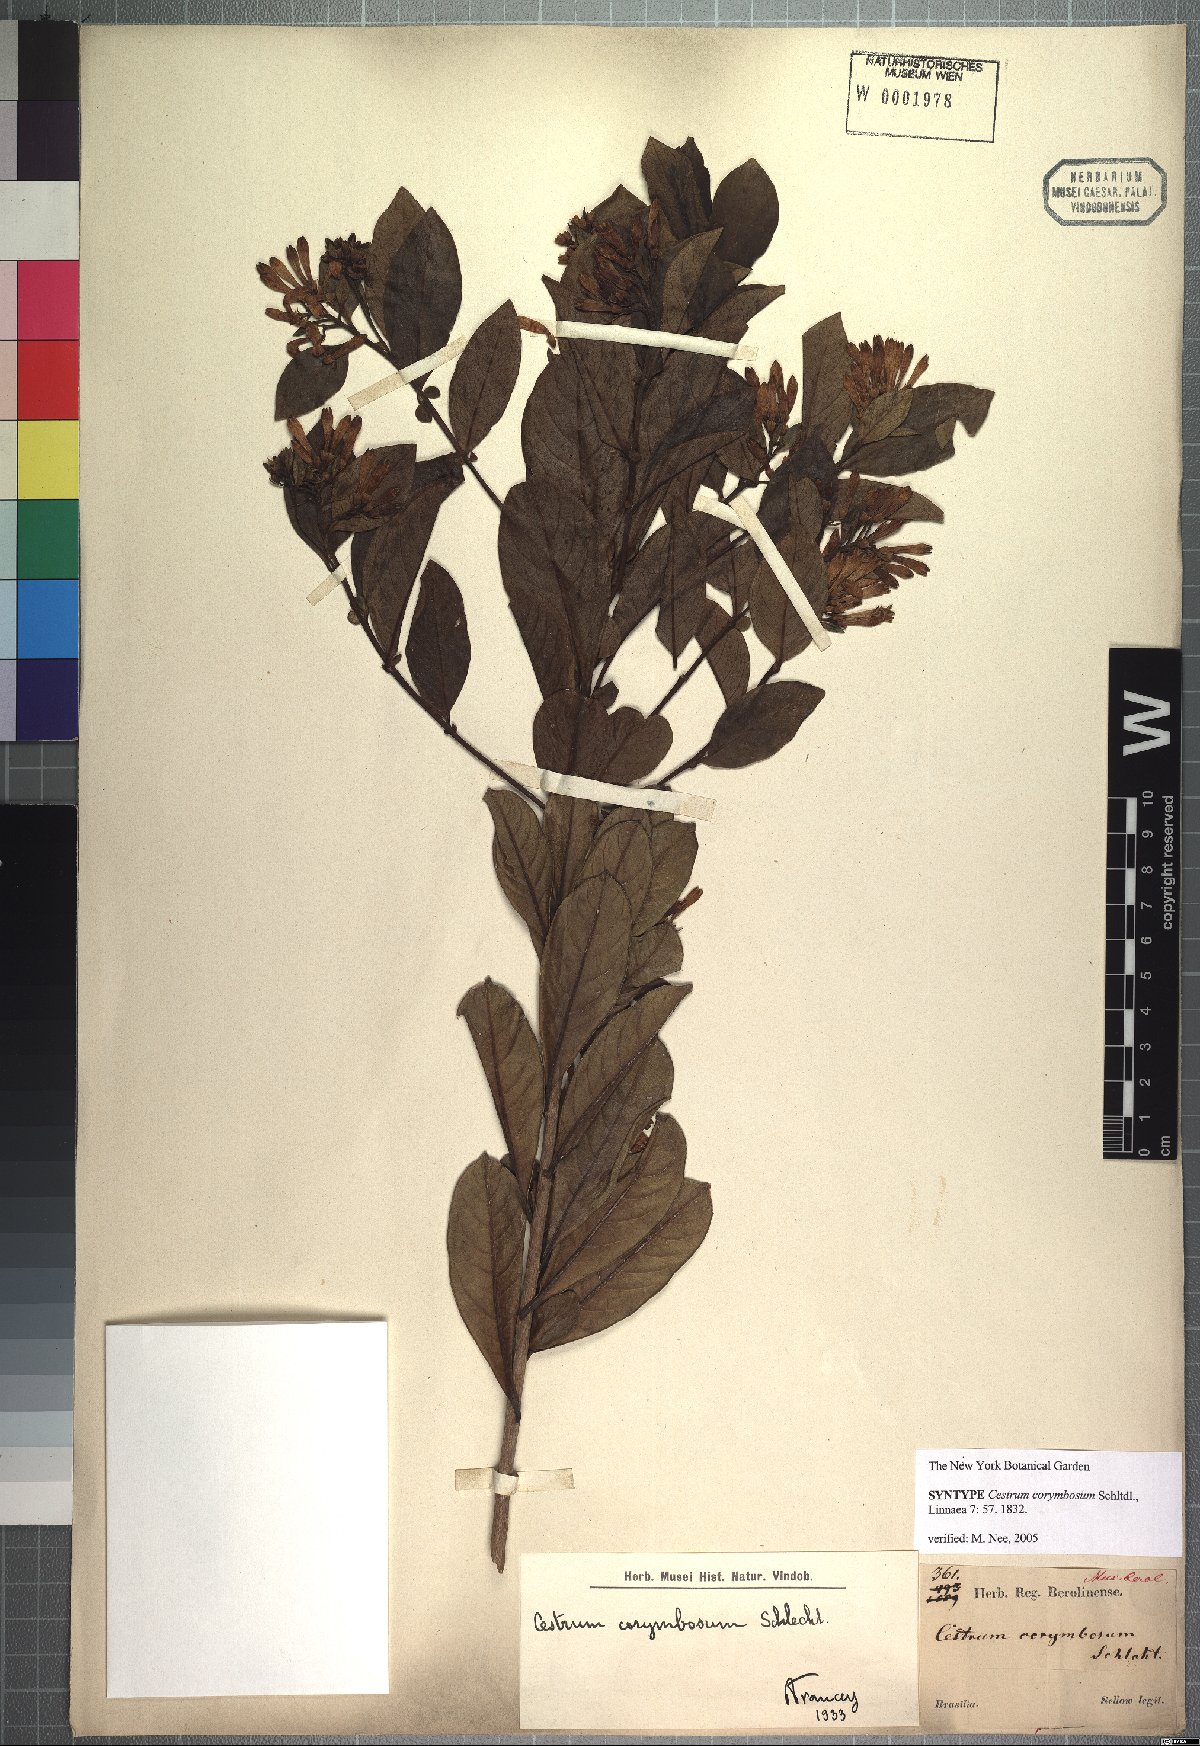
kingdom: Plantae
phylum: Tracheophyta
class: Magnoliopsida
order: Solanales
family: Solanaceae
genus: Cestrum
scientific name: Cestrum corymbosum
